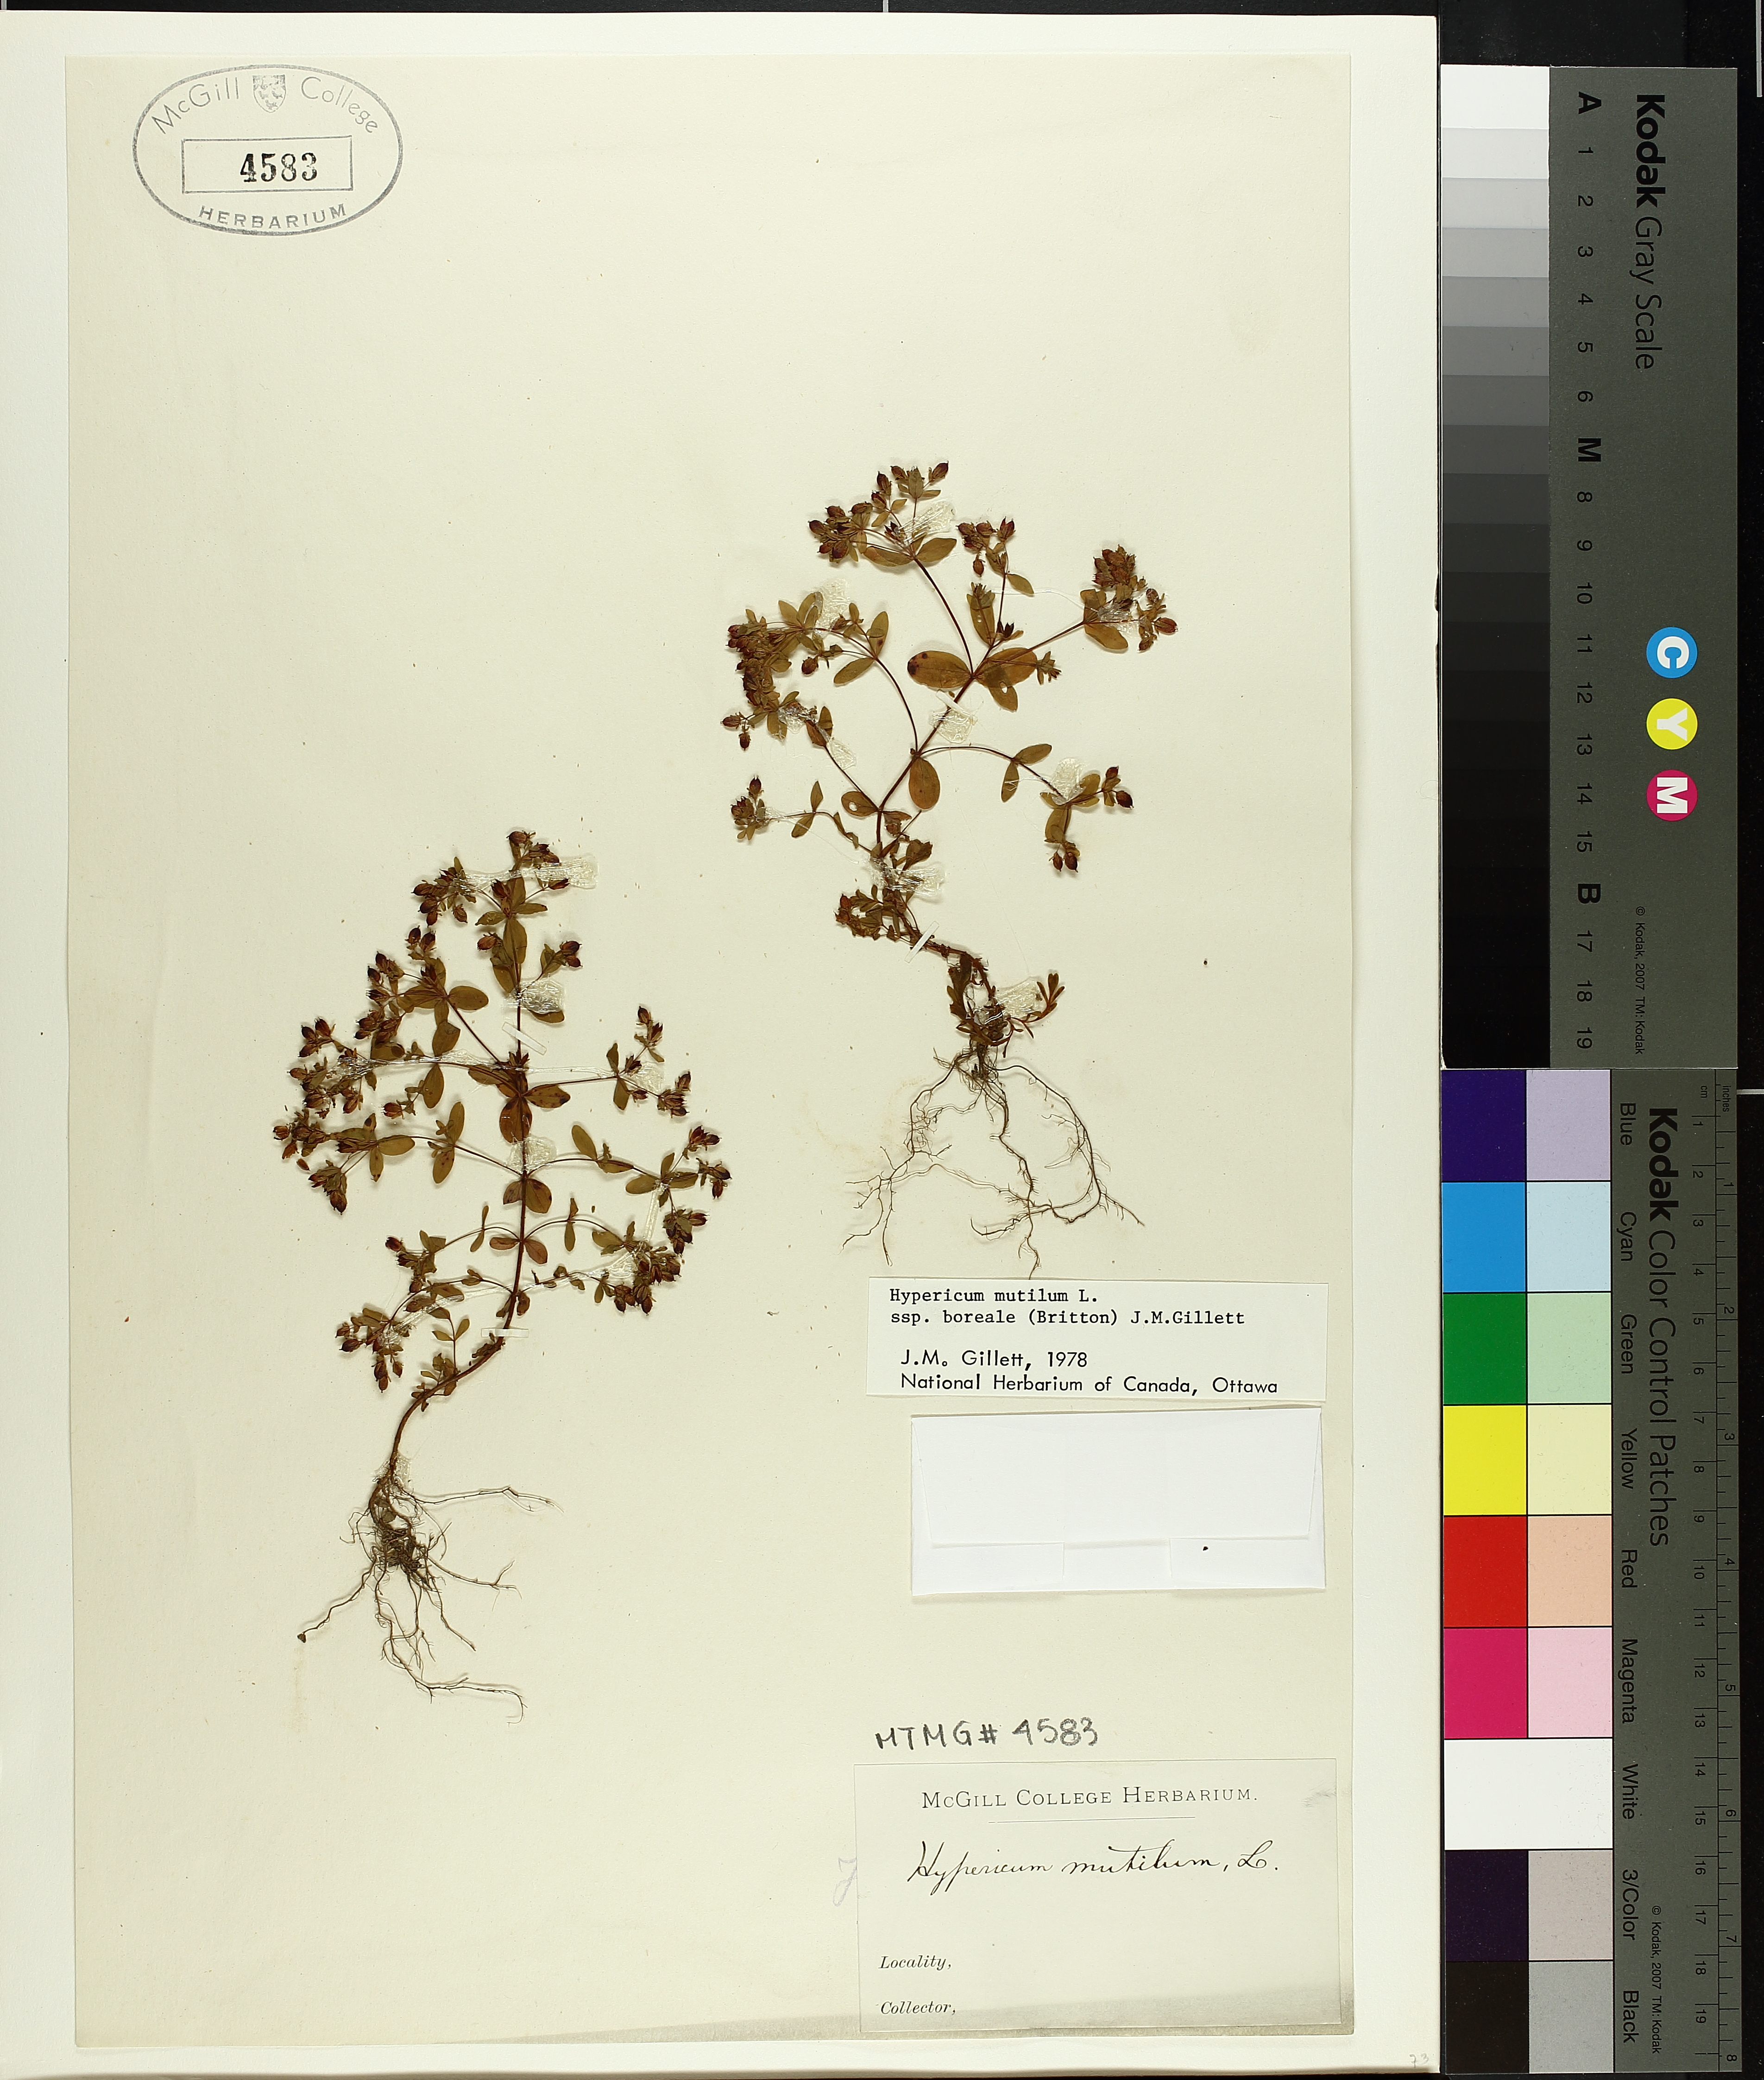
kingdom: Plantae
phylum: Tracheophyta
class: Magnoliopsida
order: Malpighiales
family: Hypericaceae
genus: Hypericum
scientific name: Hypericum boreale
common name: Northern bog st. john's-wort
